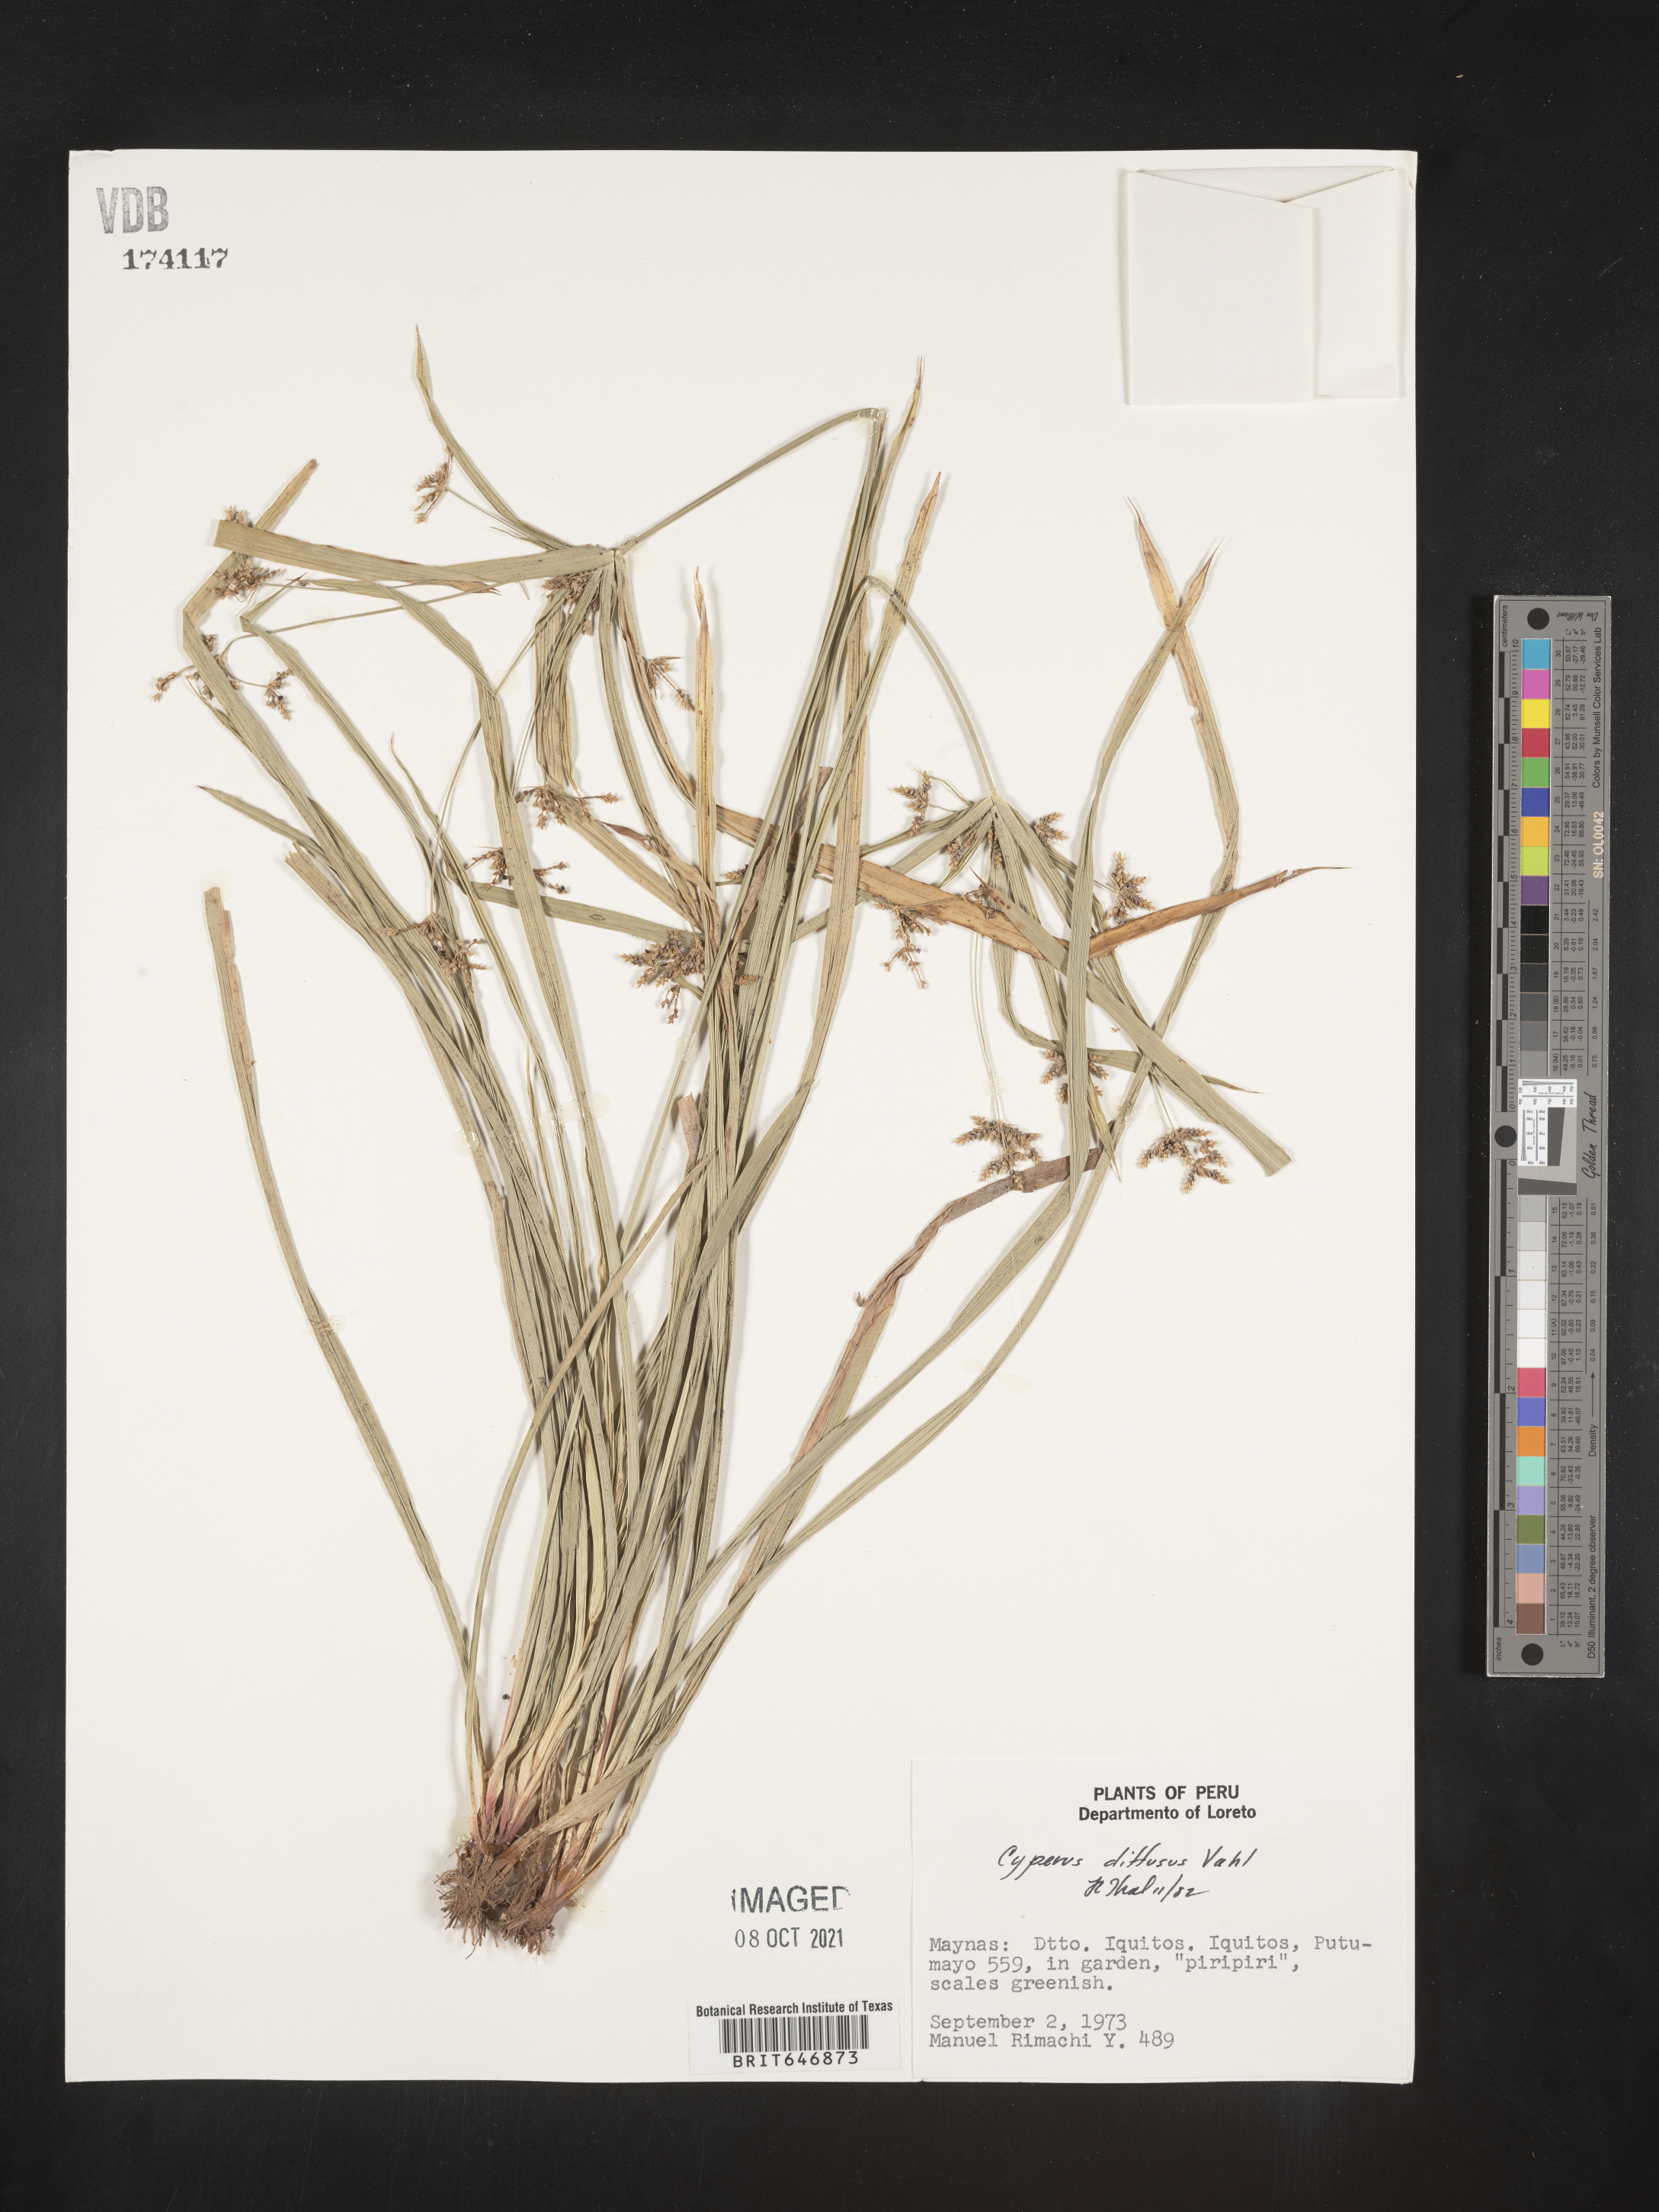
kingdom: Plantae
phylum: Tracheophyta
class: Liliopsida
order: Poales
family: Cyperaceae
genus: Cyperus
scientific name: Cyperus diffusus
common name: Dwarf umbrella grass
